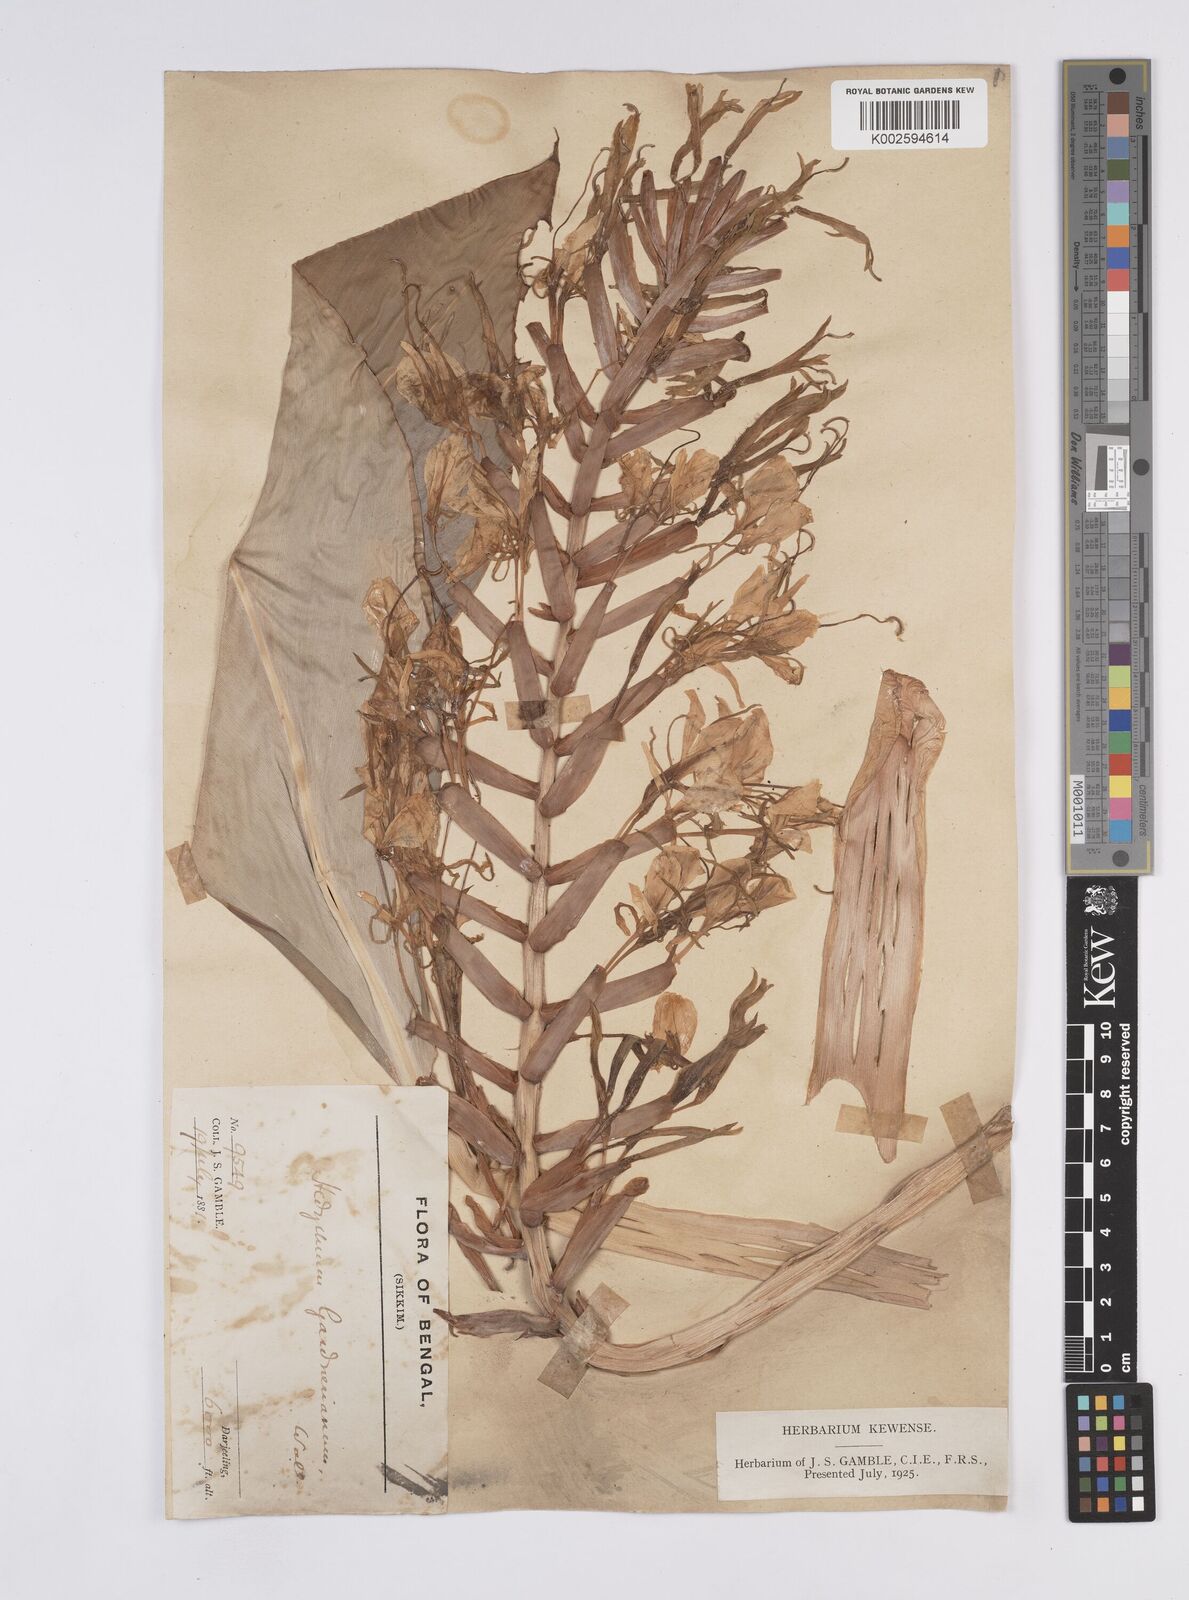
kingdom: Plantae
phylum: Tracheophyta
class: Liliopsida
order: Zingiberales
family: Zingiberaceae
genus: Hedychium
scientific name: Hedychium gardnerianum
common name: Himalayan ginger
